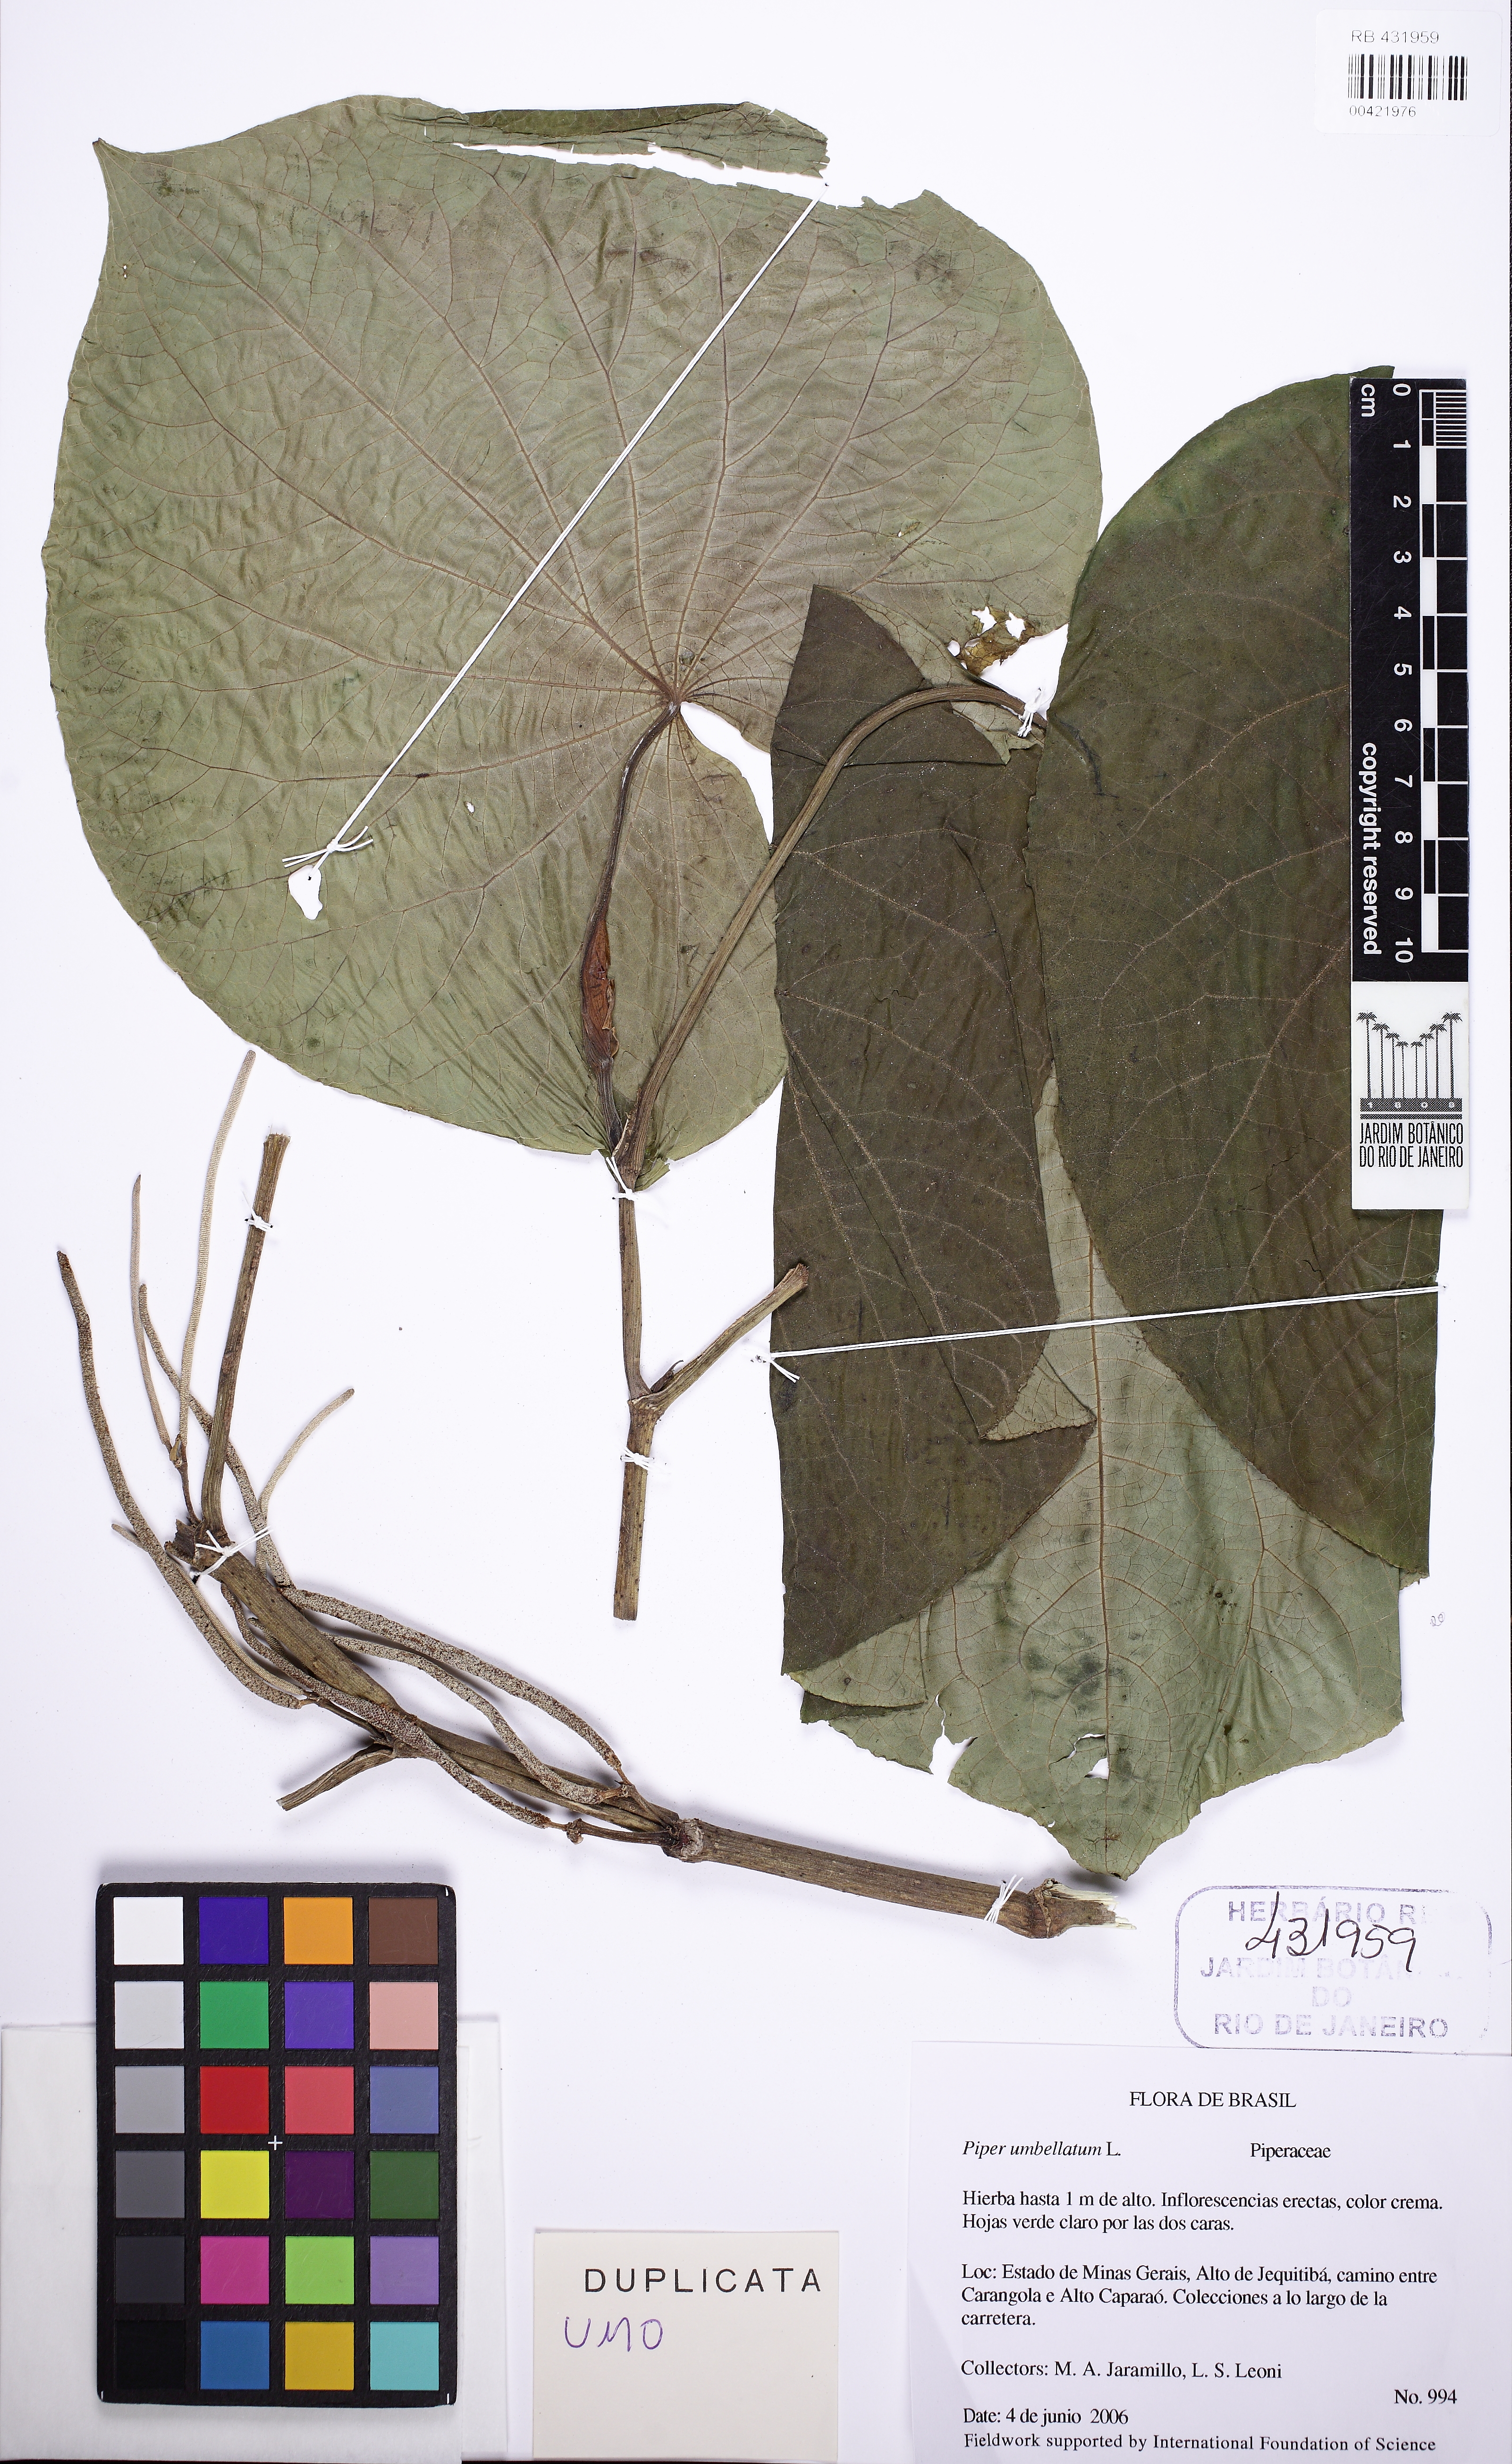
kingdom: Plantae
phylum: Tracheophyta
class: Magnoliopsida
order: Piperales
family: Piperaceae
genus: Piper
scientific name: Piper umbellatum
